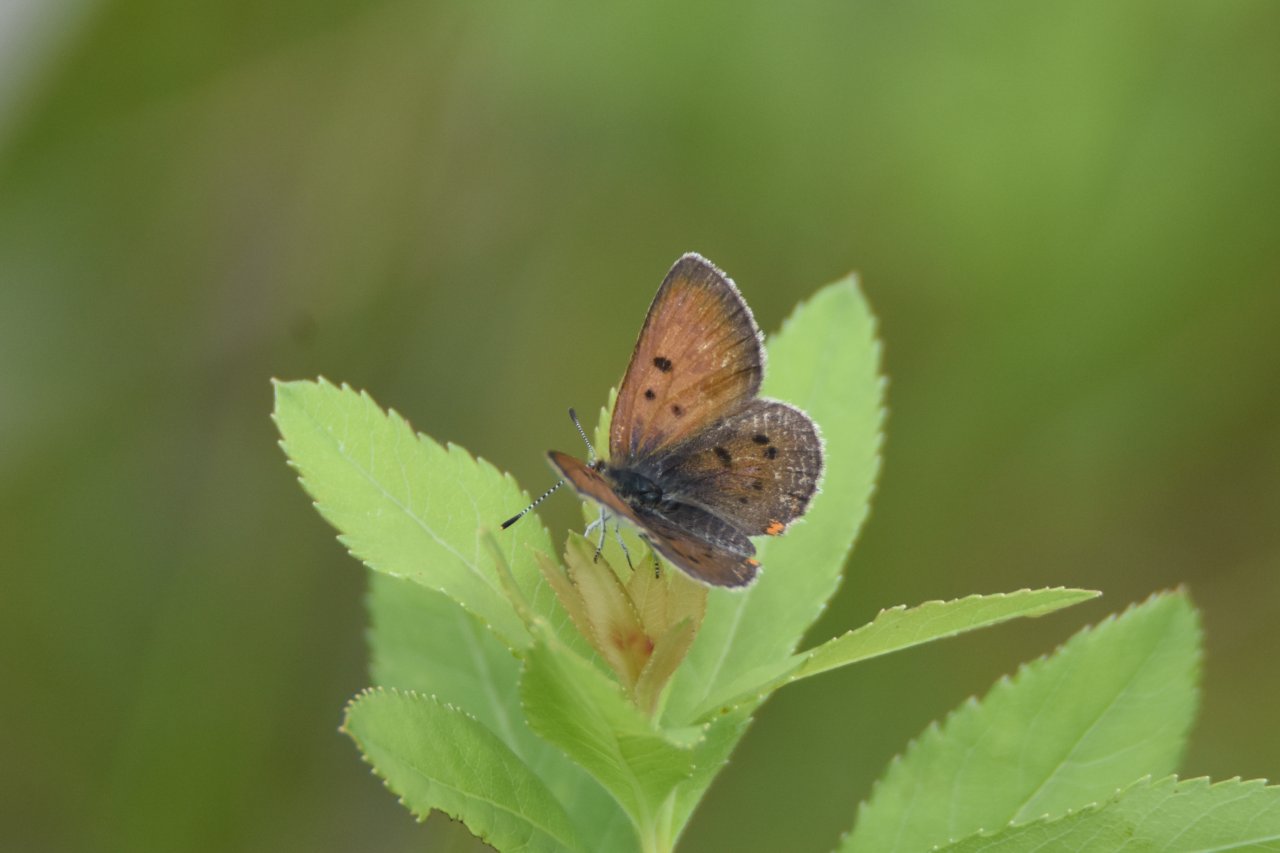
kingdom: Animalia
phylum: Arthropoda
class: Insecta
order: Lepidoptera
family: Sesiidae
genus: Sesia
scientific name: Sesia Lycaena epixanthe
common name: Bog Copper
